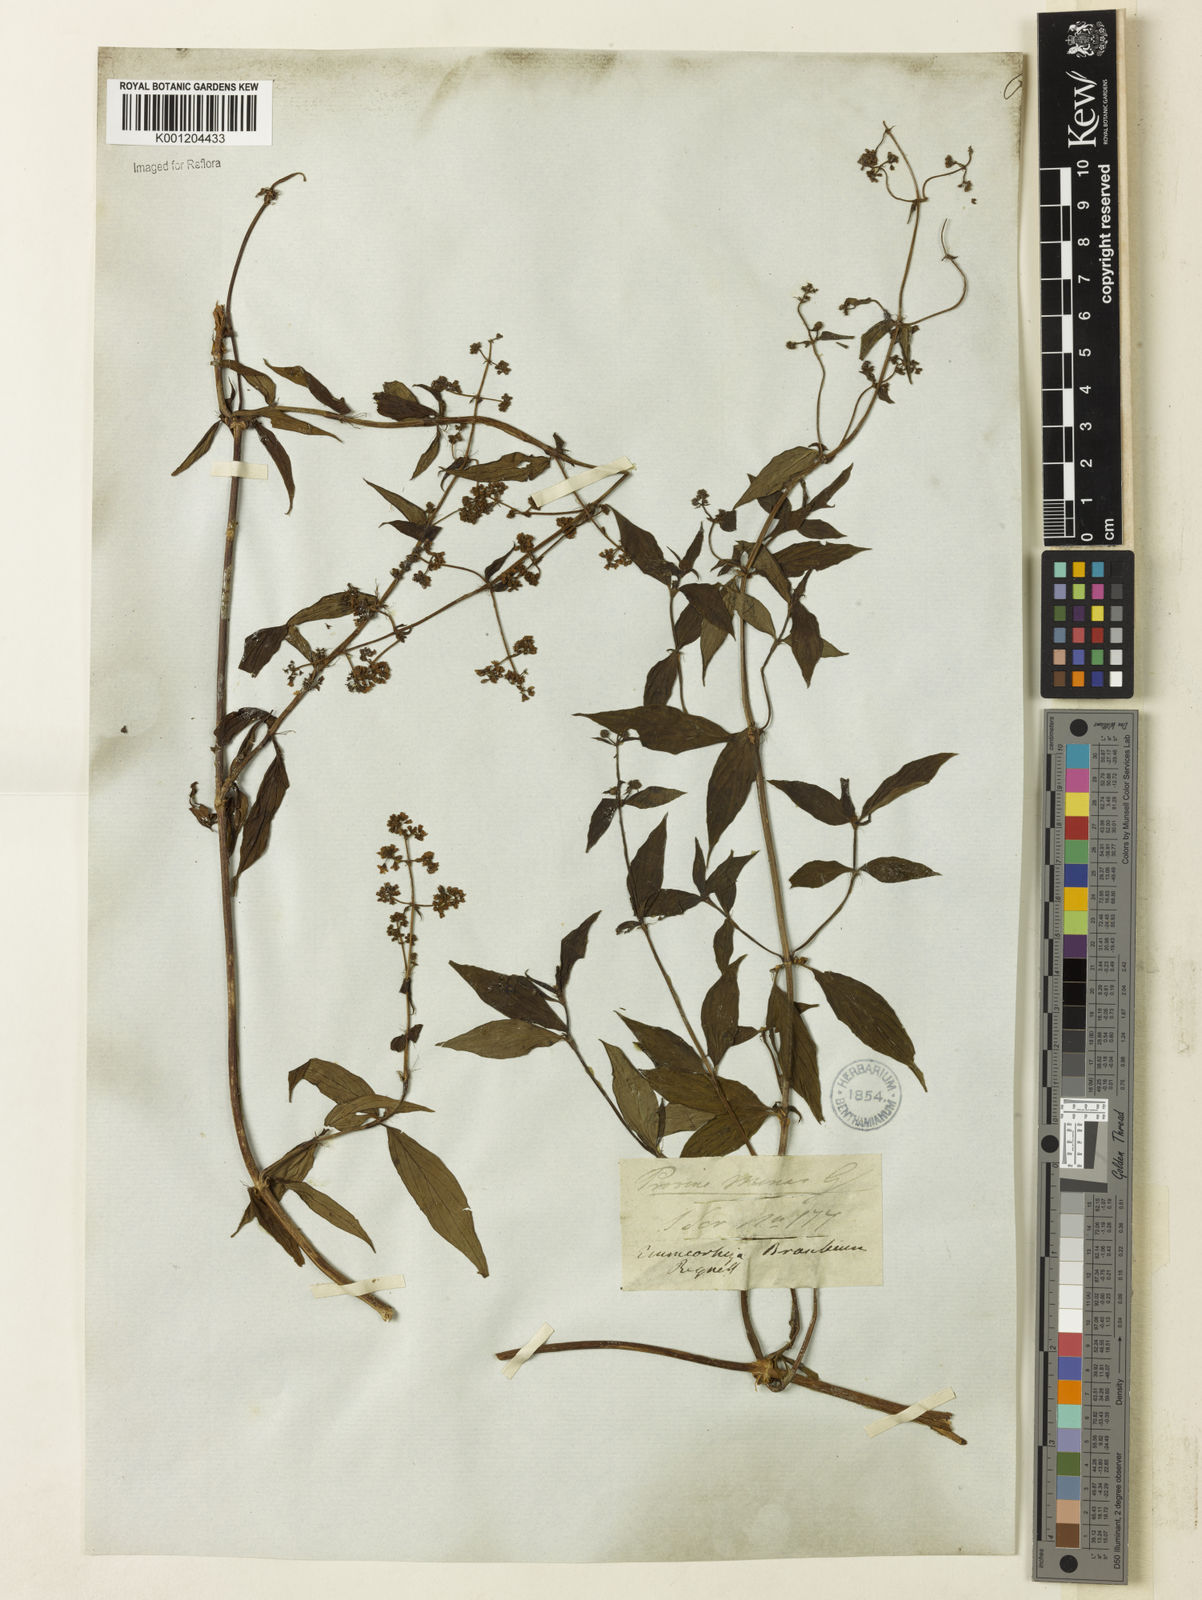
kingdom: Plantae
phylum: Tracheophyta
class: Magnoliopsida
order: Gentianales
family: Rubiaceae
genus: Emmeorhiza
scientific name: Emmeorhiza umbellata
